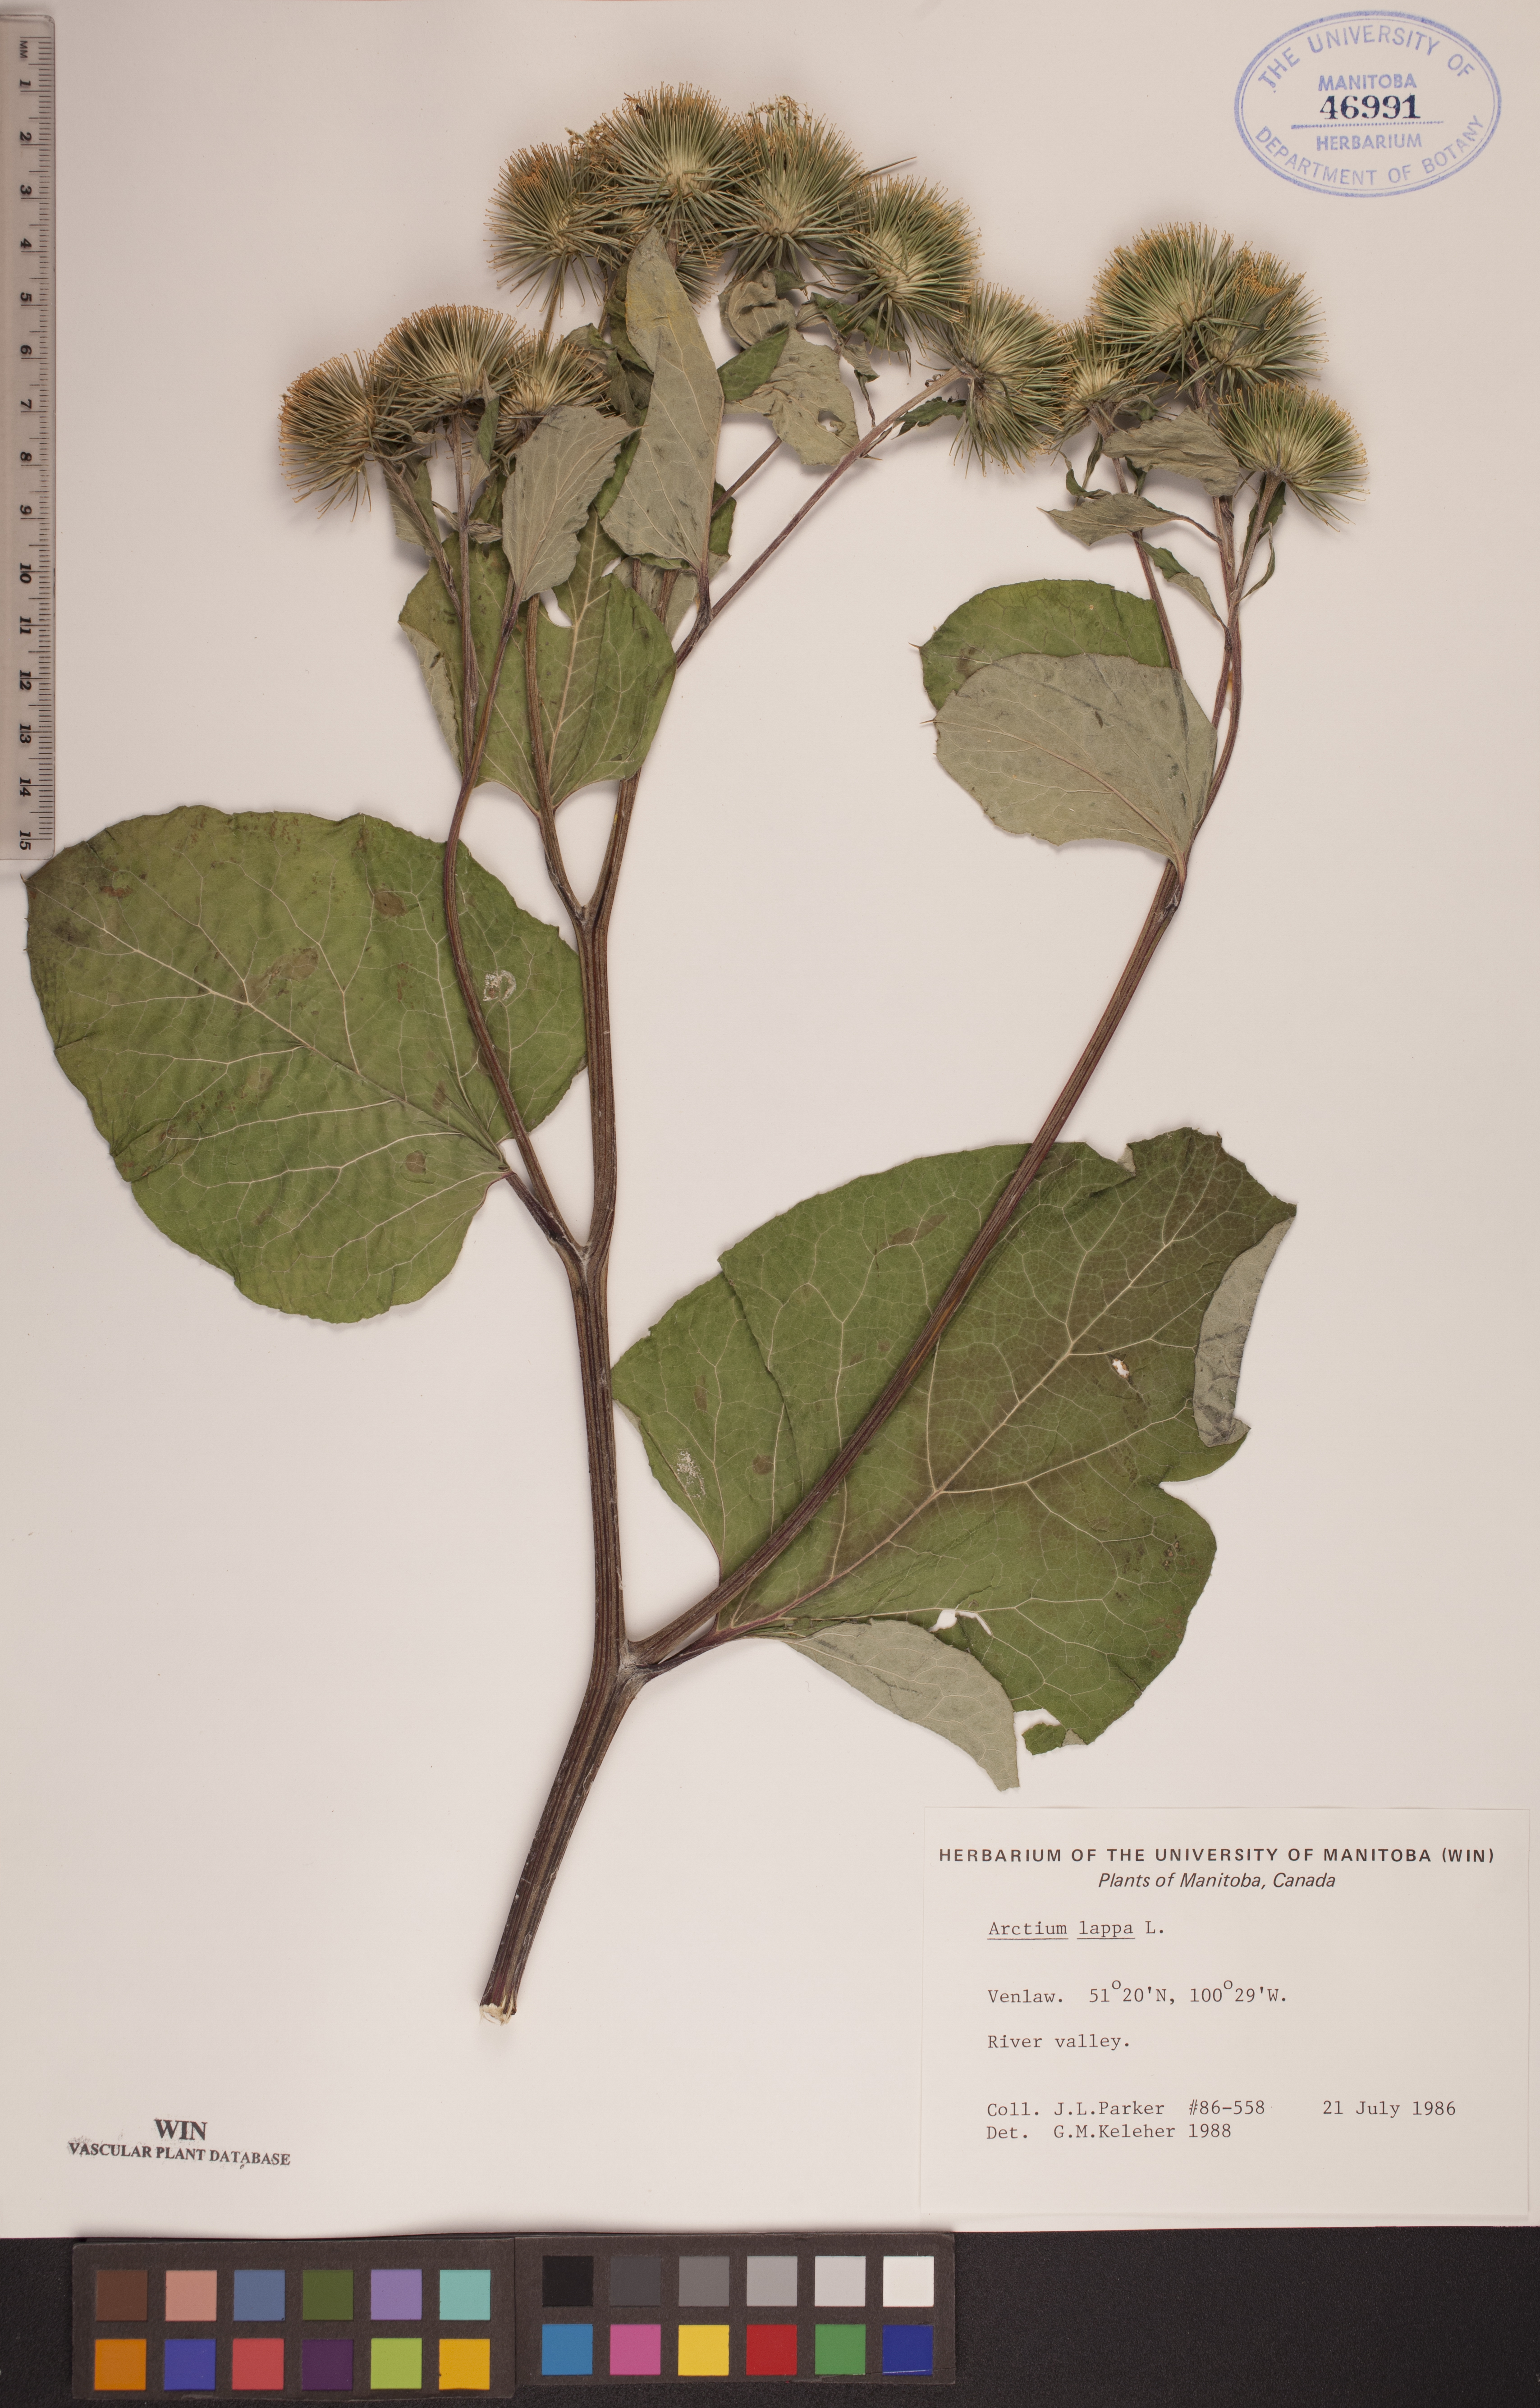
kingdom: Plantae
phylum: Tracheophyta
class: Magnoliopsida
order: Asterales
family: Asteraceae
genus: Arctium
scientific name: Arctium lappa
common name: Greater burdock
